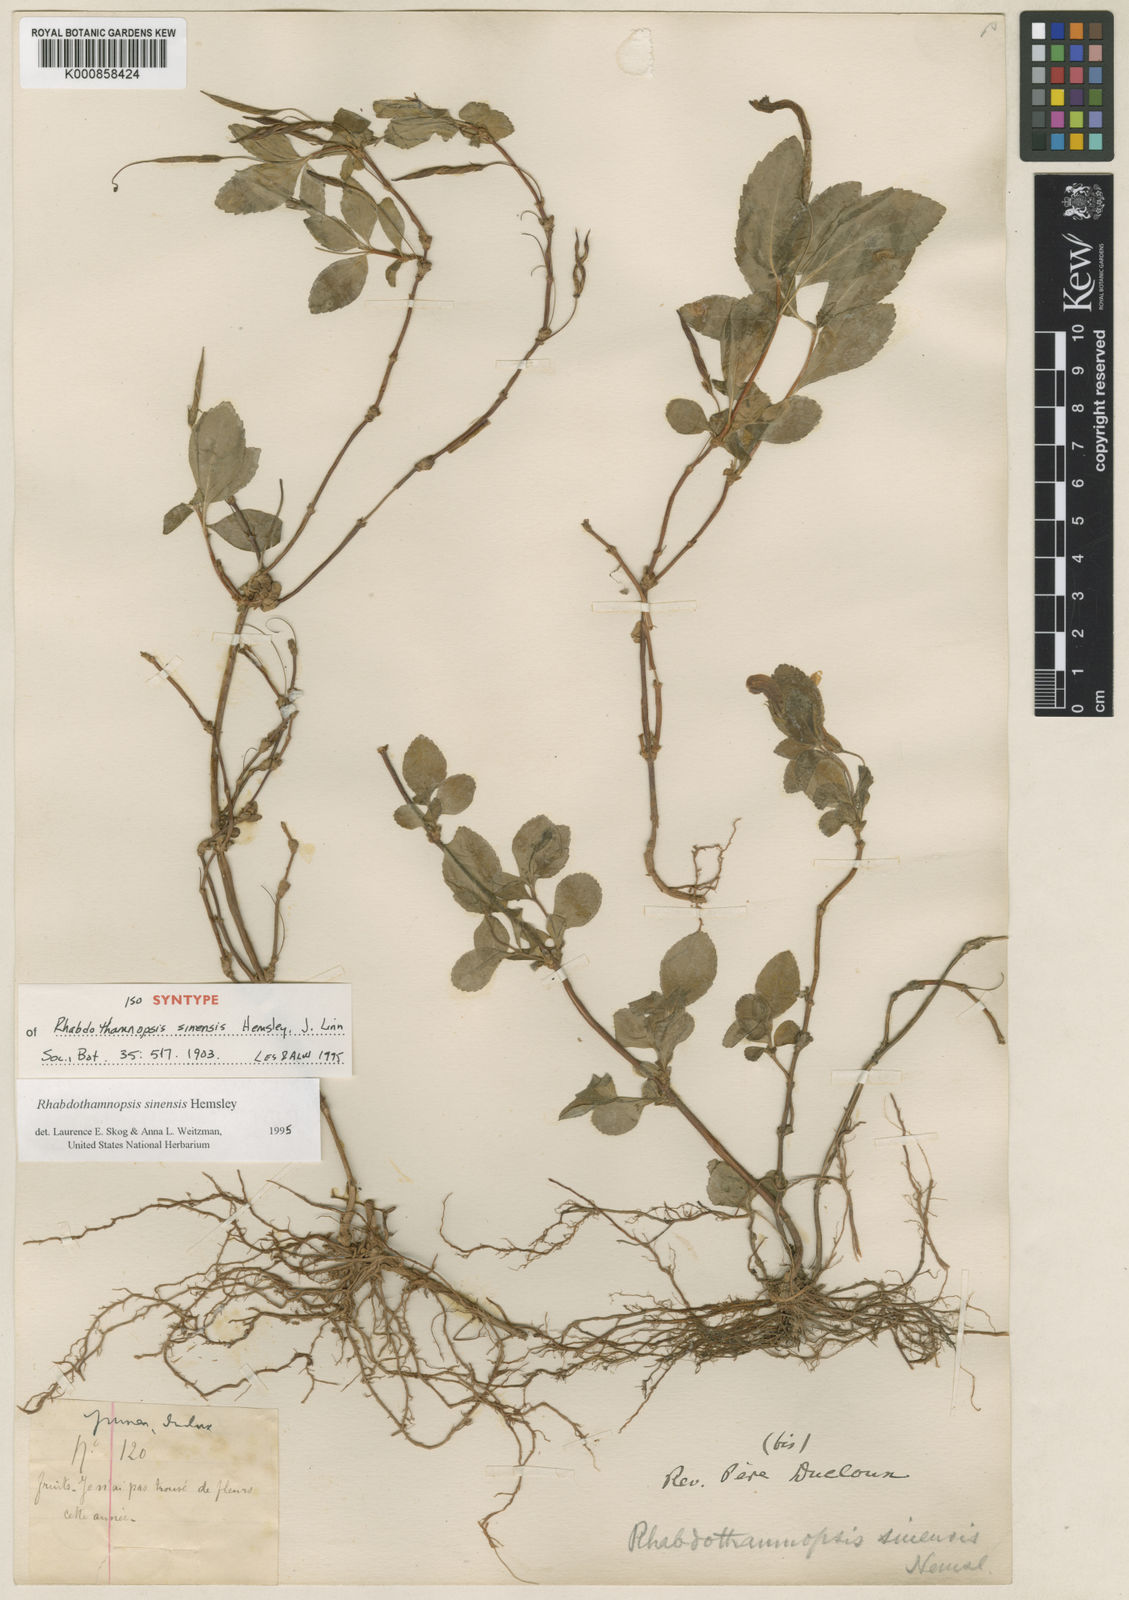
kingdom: Plantae
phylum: Tracheophyta
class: Magnoliopsida
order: Lamiales
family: Gesneriaceae
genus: Rhabdothamnopsis
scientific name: Rhabdothamnopsis sinensis
